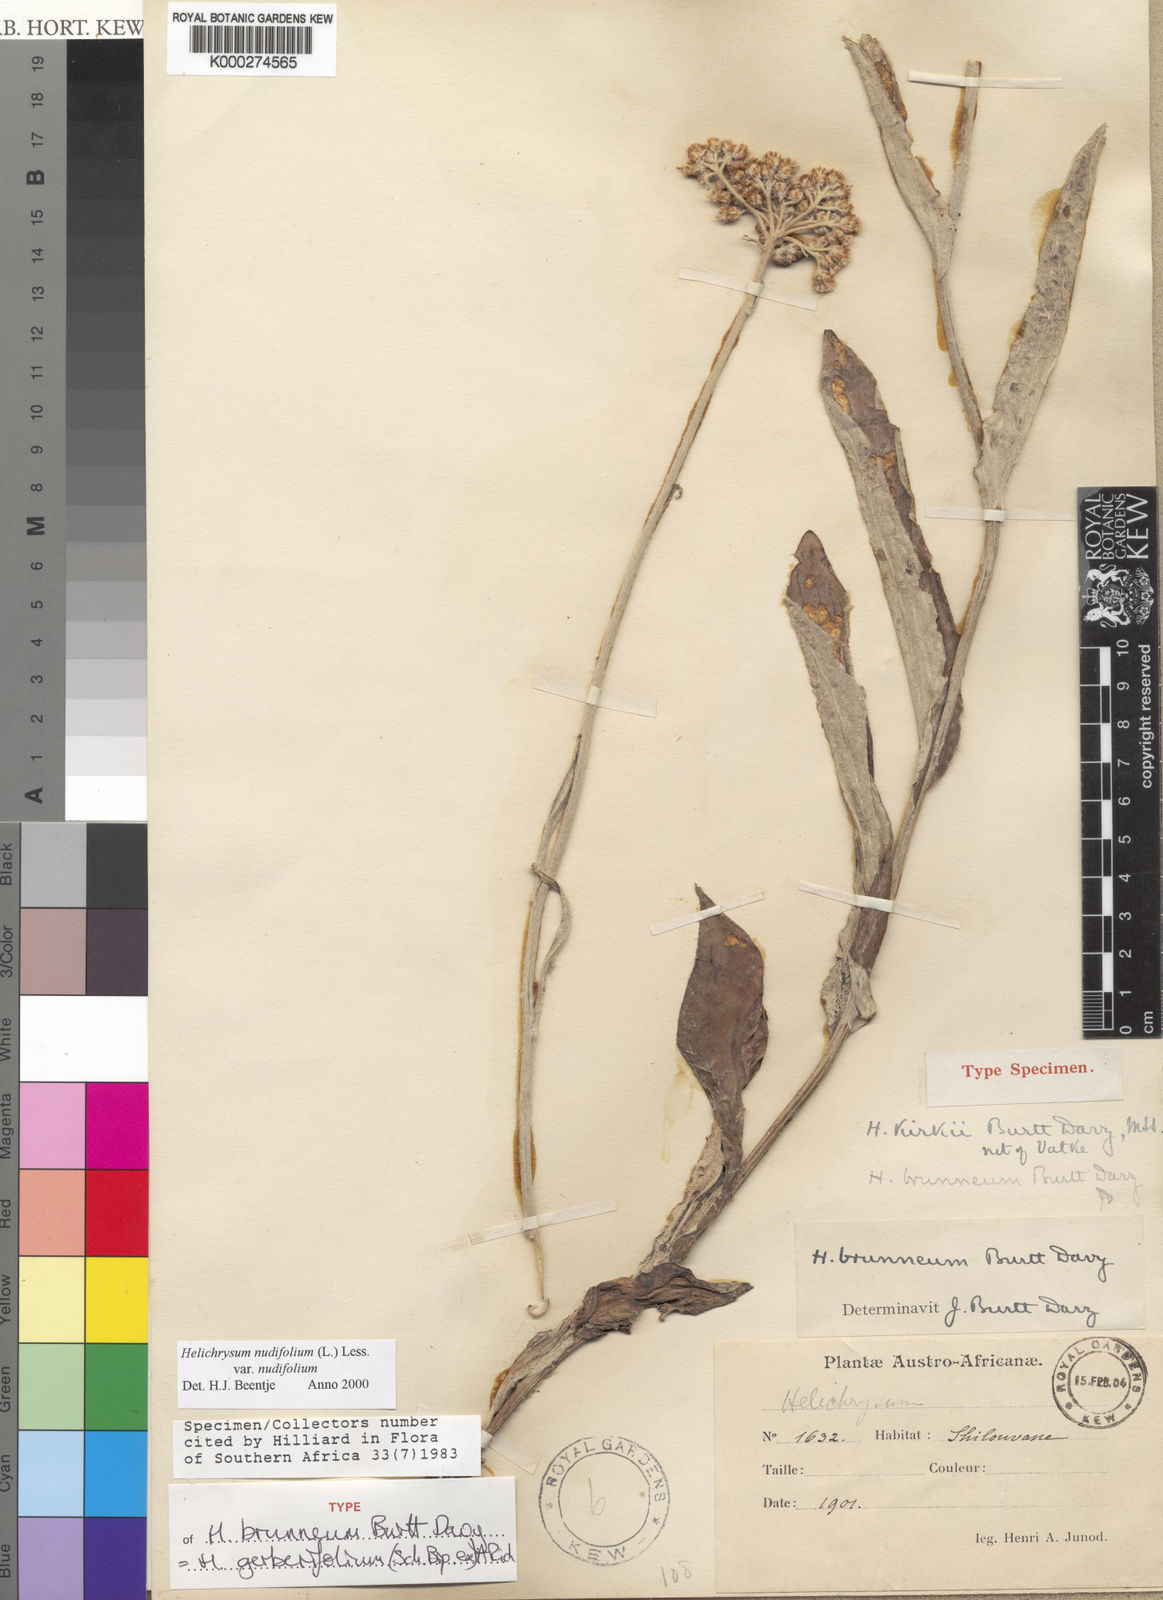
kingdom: Plantae
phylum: Tracheophyta
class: Magnoliopsida
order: Asterales
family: Asteraceae
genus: Helichrysum
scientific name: Helichrysum nudifolium
